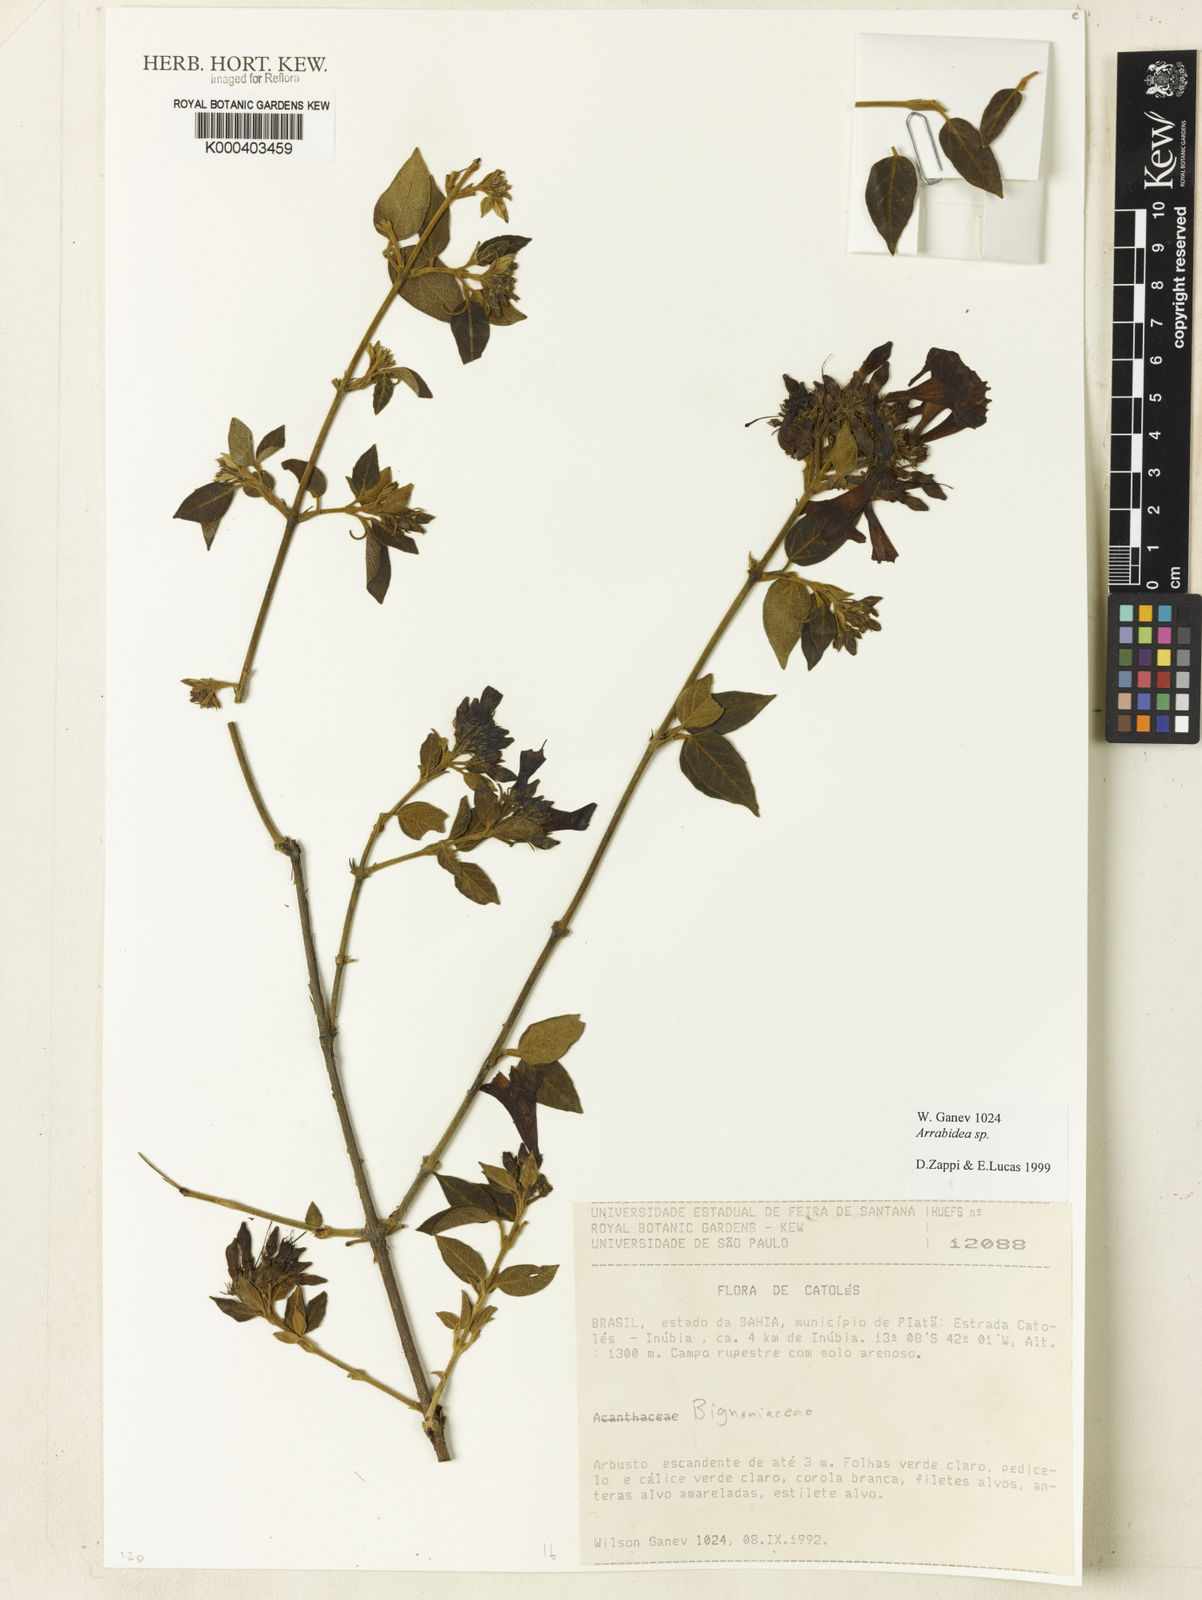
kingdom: Plantae
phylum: Tracheophyta
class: Magnoliopsida
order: Rosales
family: Rhamnaceae
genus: Arrabidaea
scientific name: Arrabidaea
